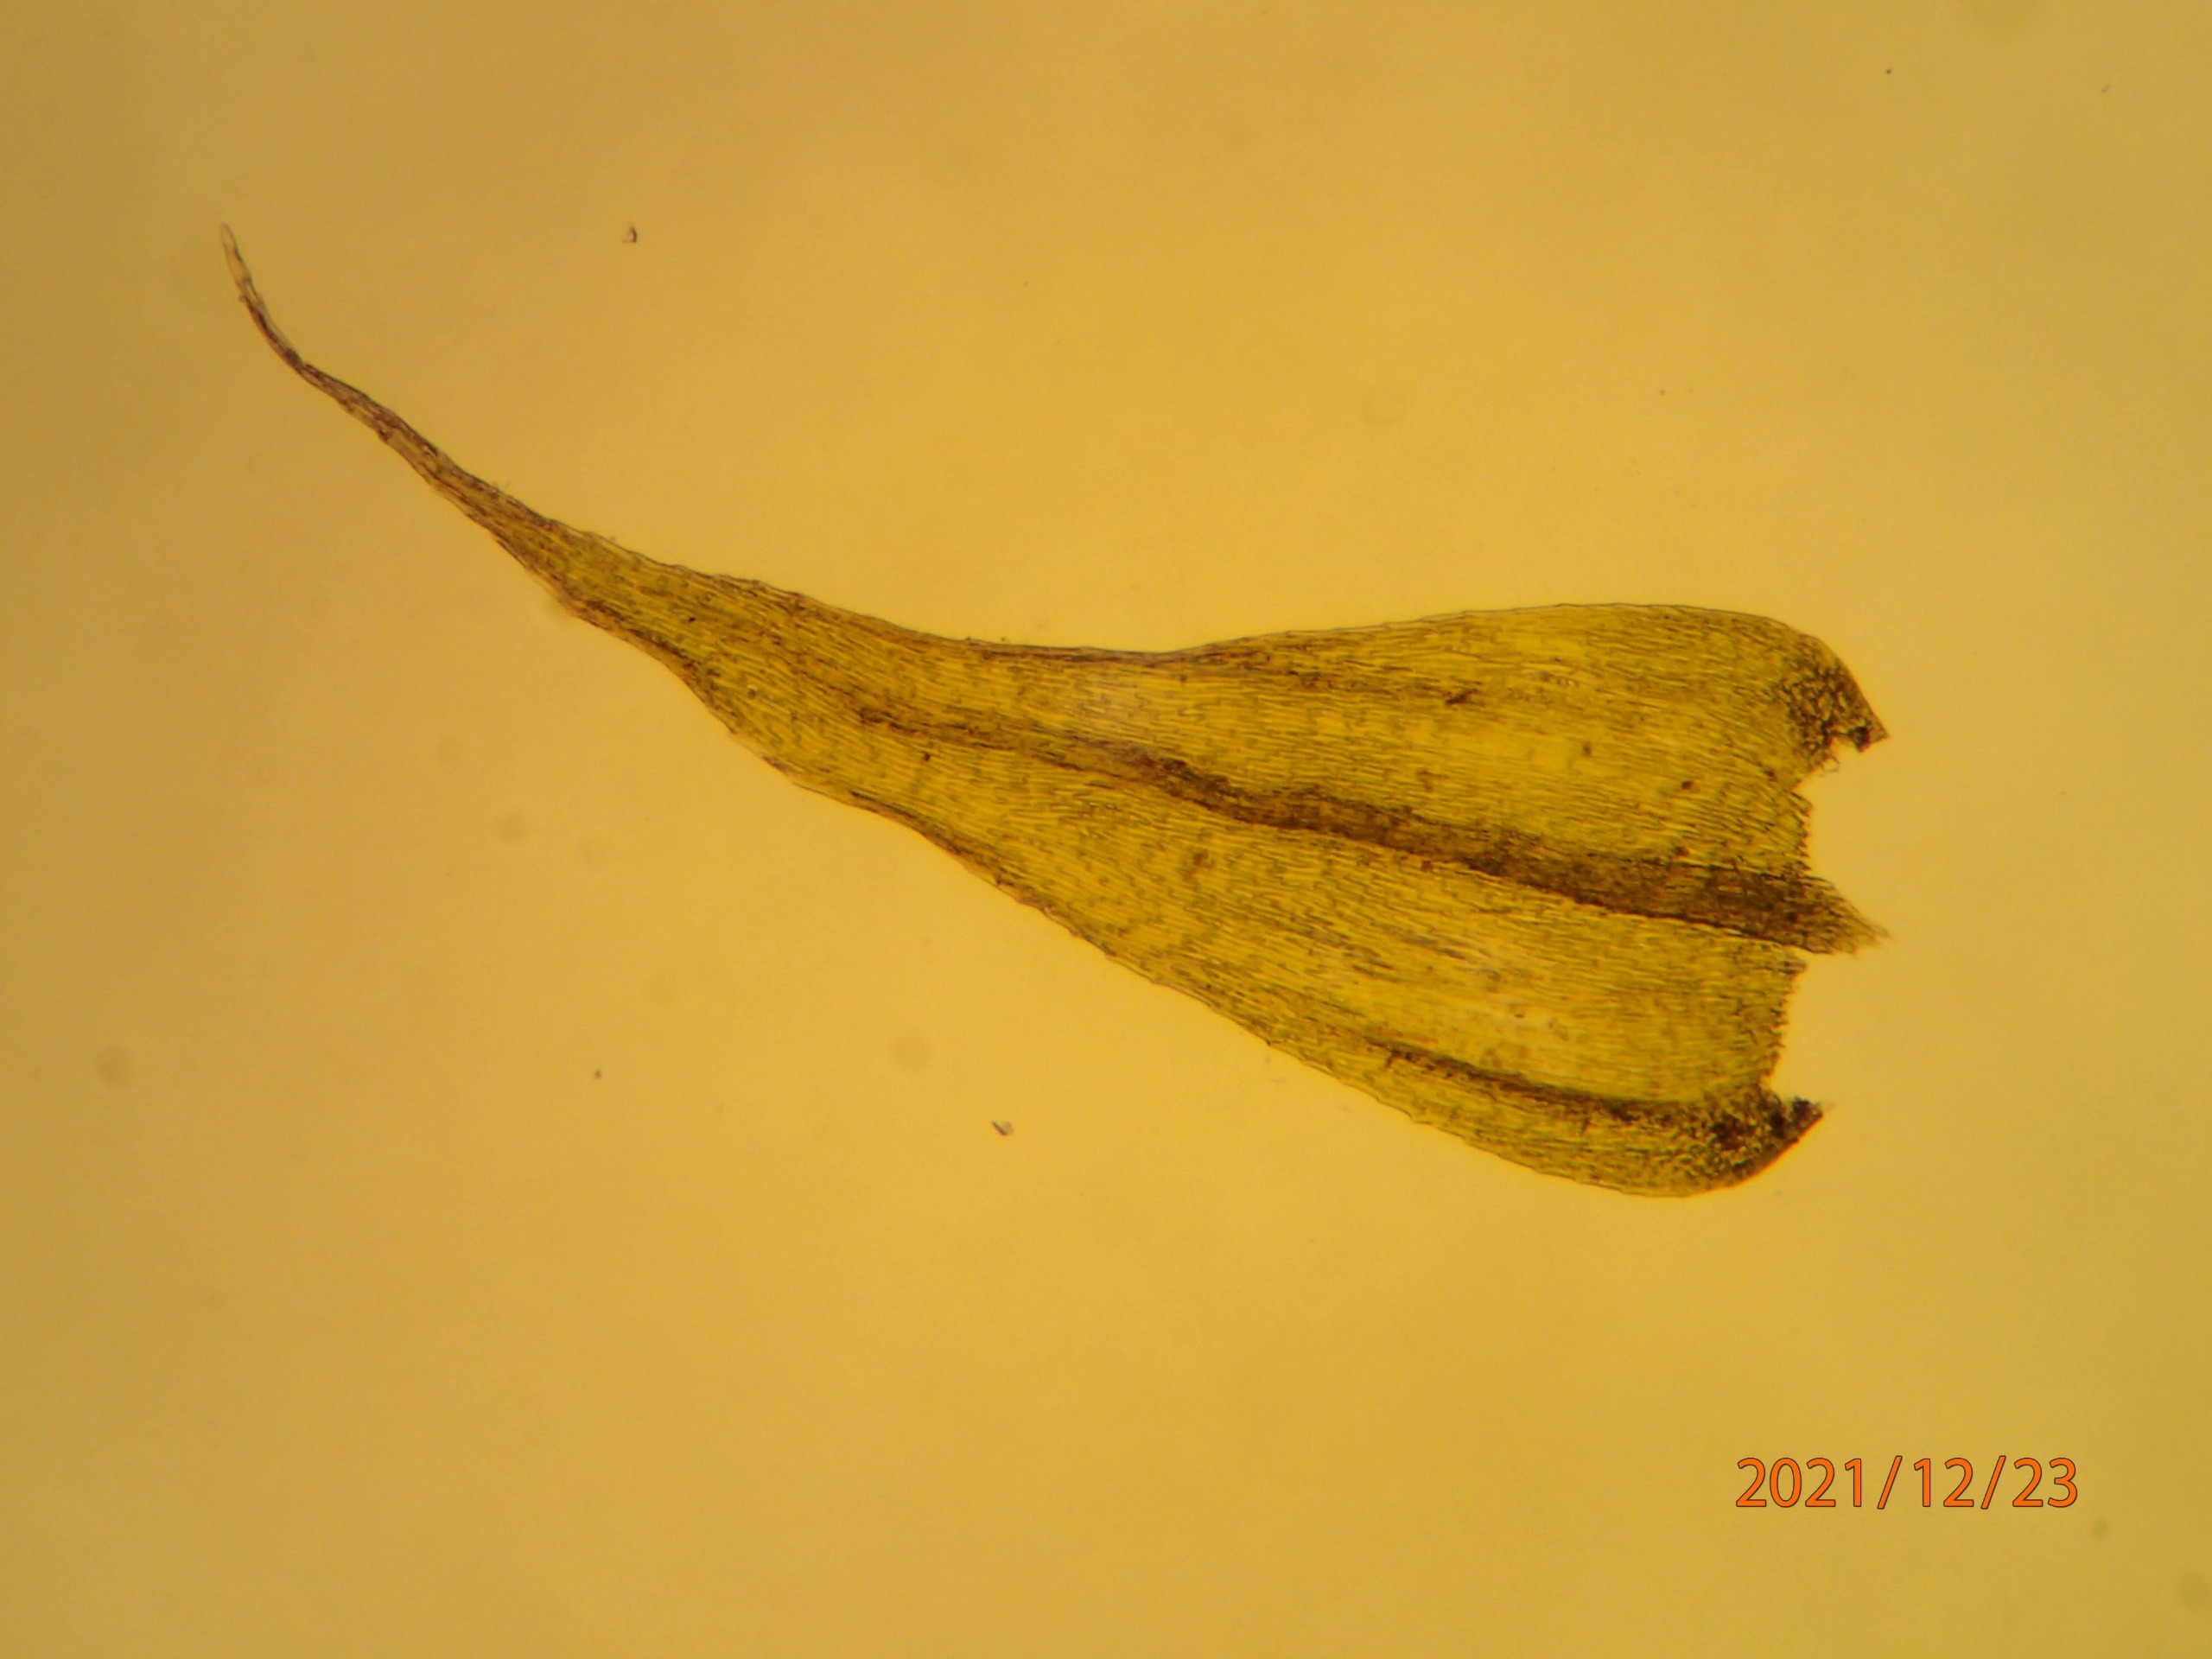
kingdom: Plantae
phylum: Bryophyta
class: Bryopsida
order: Hypnales
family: Brachytheciaceae
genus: Brachytheciastrum
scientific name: Brachytheciastrum velutinum
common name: Fløjls-kortkapsel
